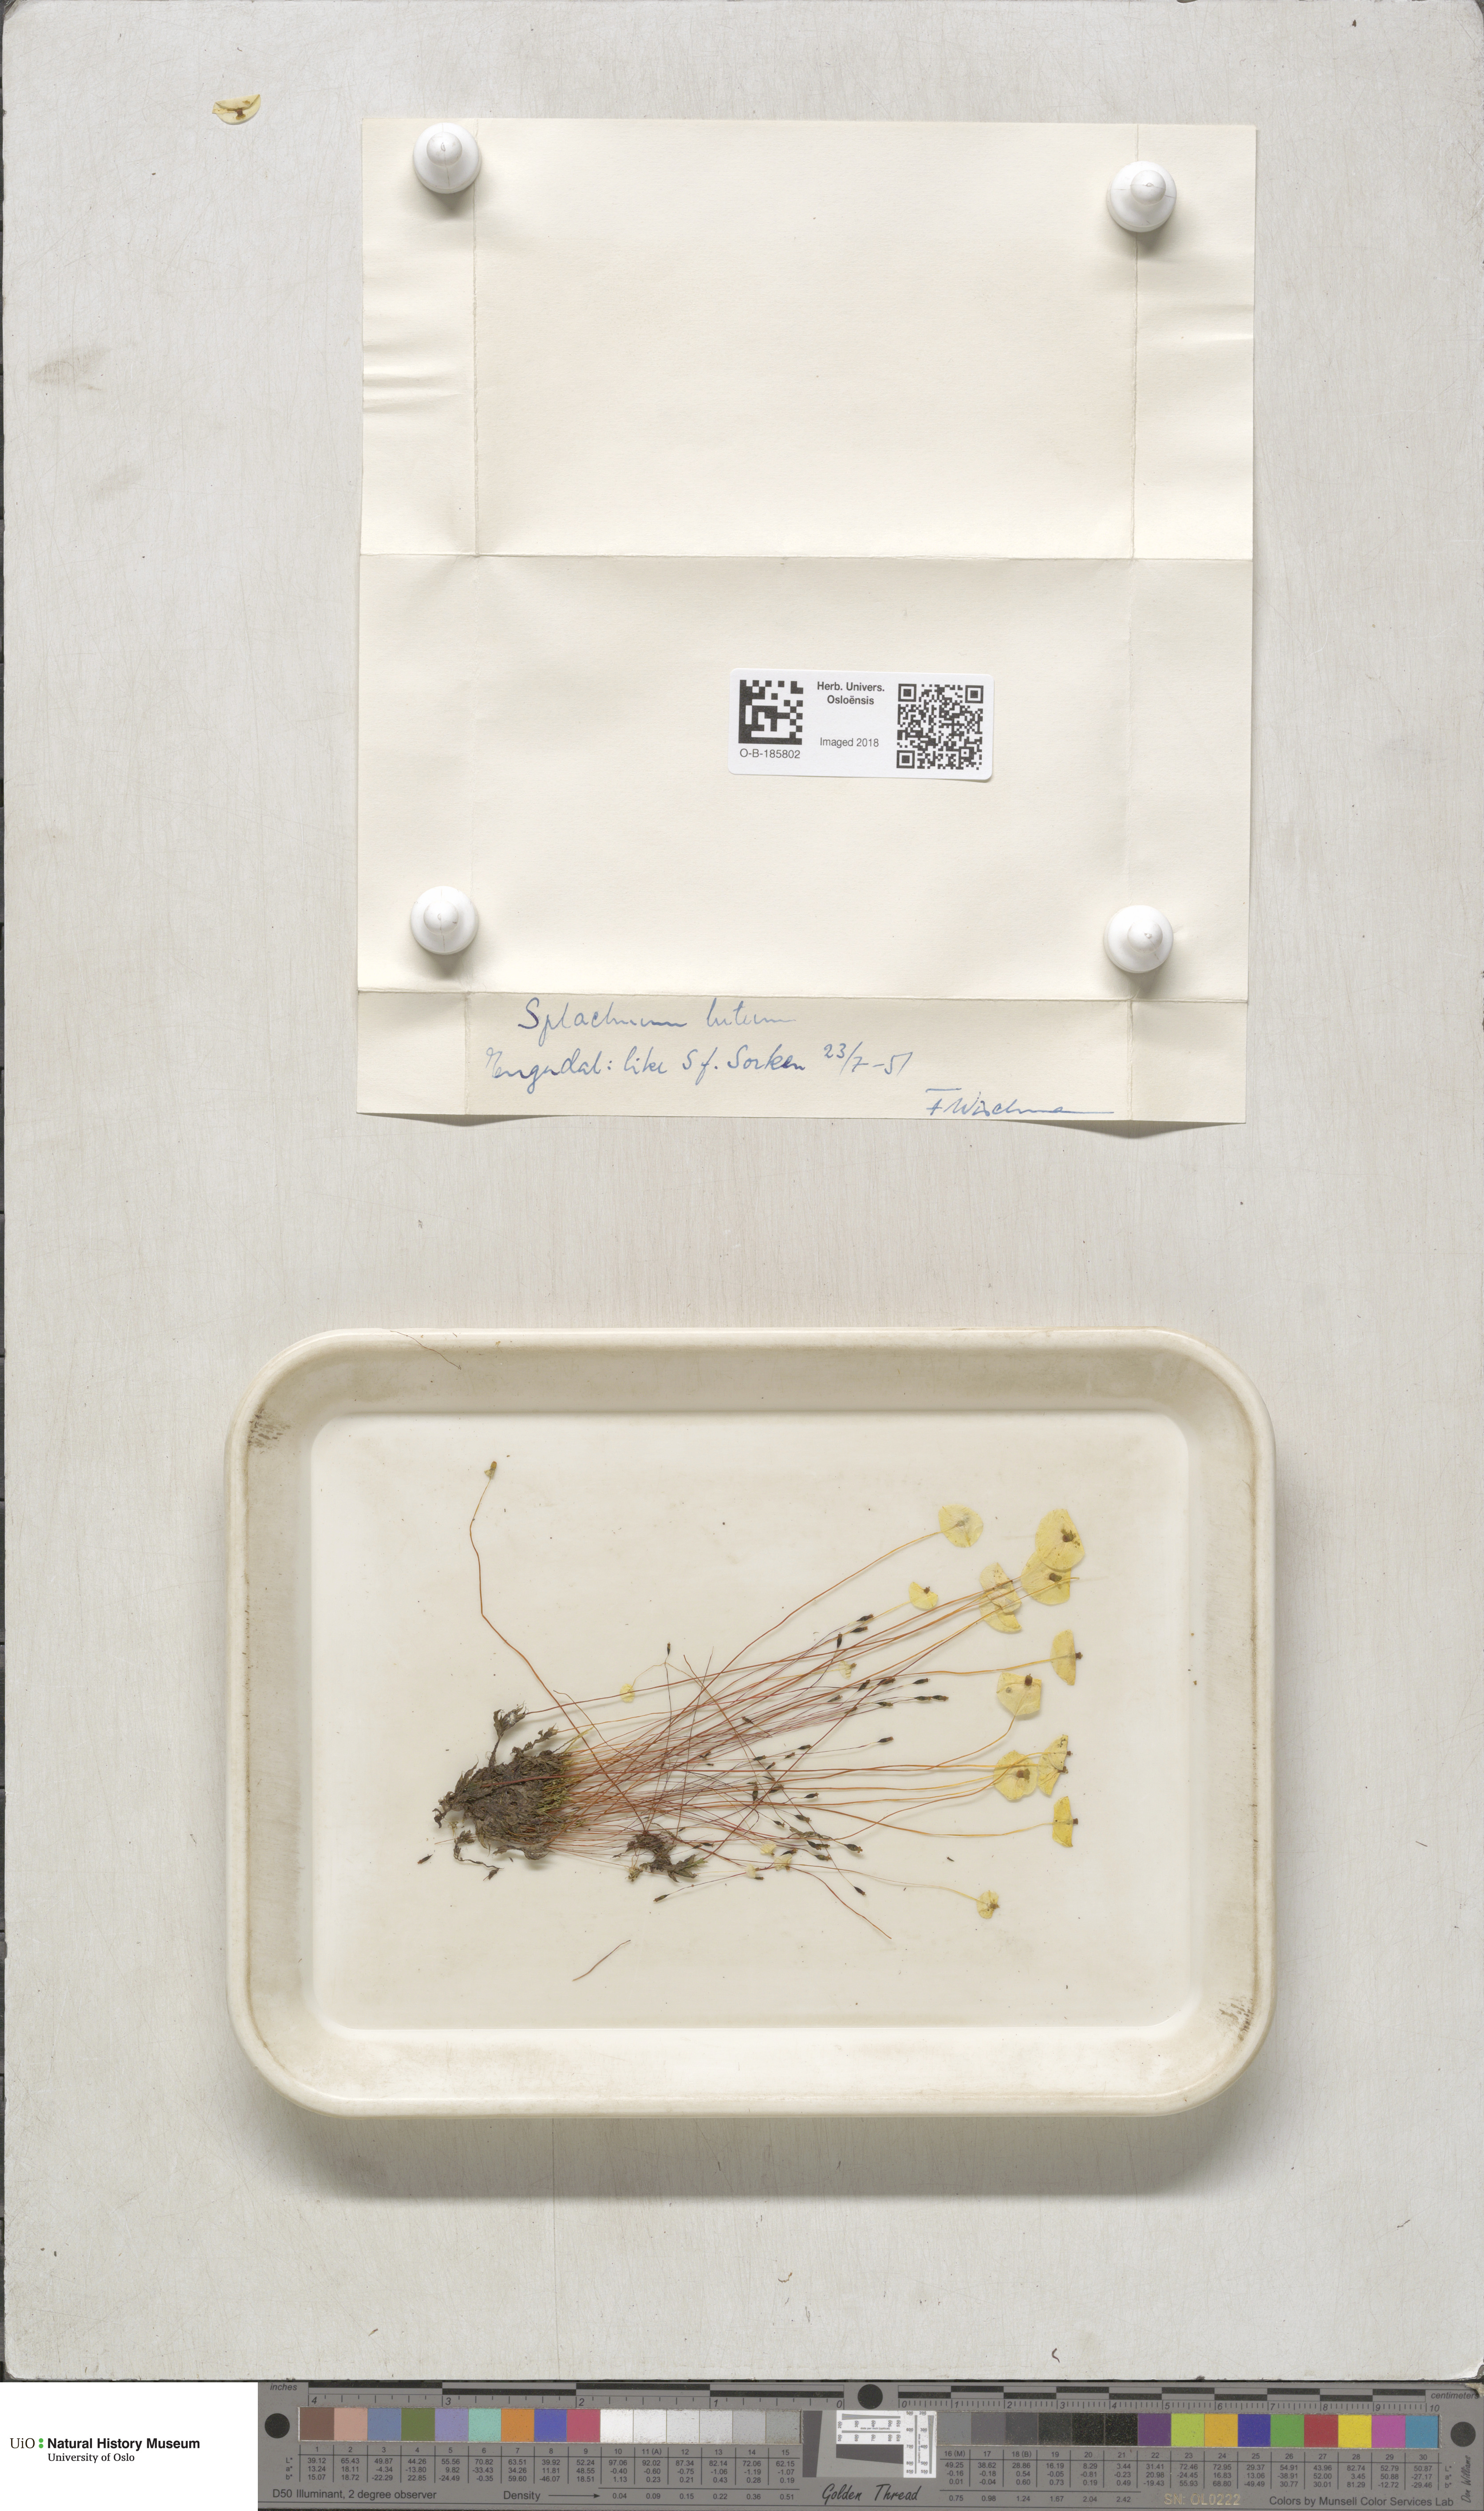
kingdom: Plantae
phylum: Bryophyta
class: Bryopsida
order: Splachnales
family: Splachnaceae
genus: Splachnum
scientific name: Splachnum luteum
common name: Yellow dung moss
